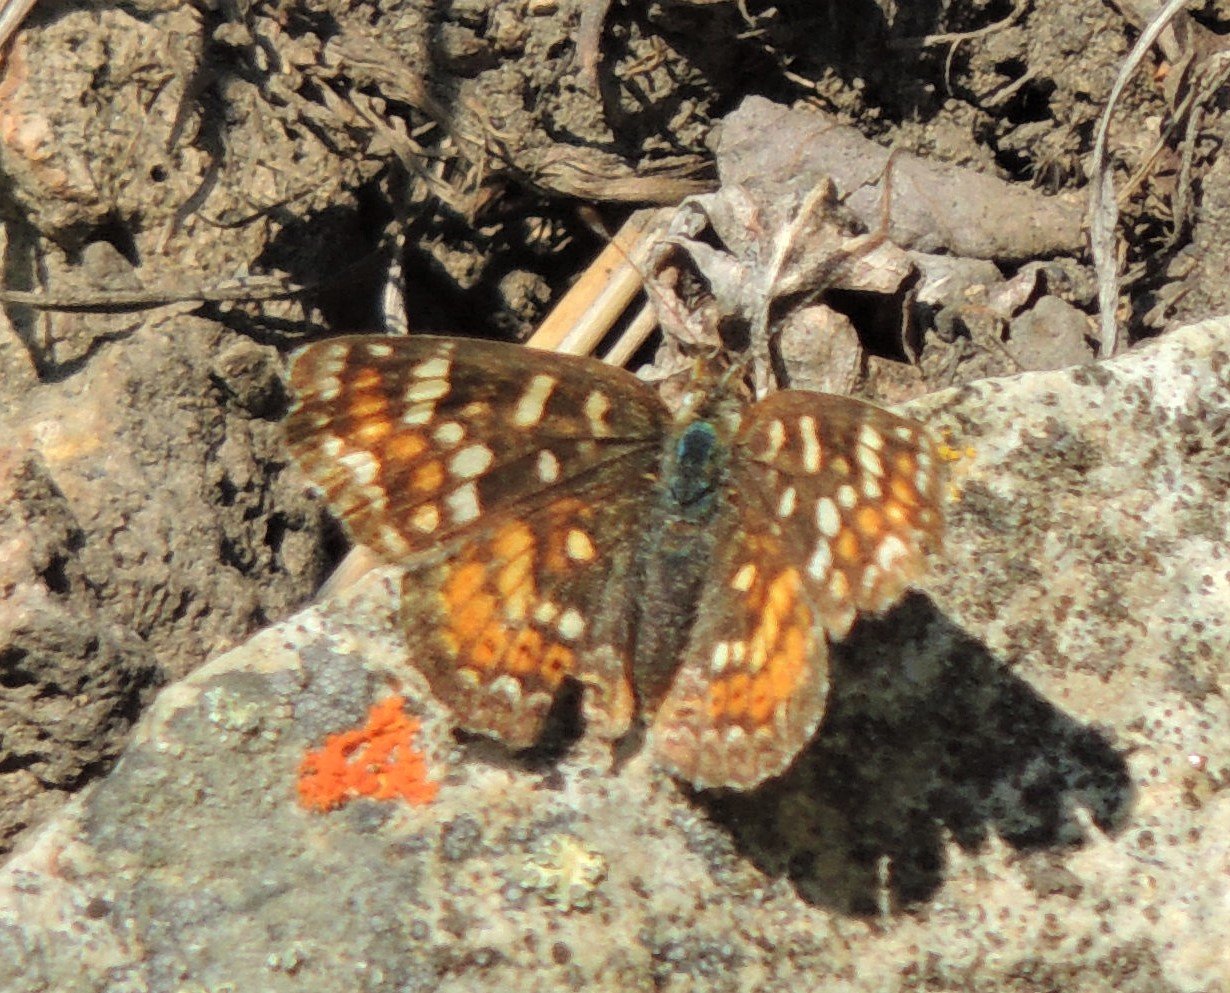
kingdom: Animalia
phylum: Arthropoda
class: Insecta
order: Lepidoptera
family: Nymphalidae
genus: Phyciodes
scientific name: Phyciodes tharos
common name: Field Crescent
